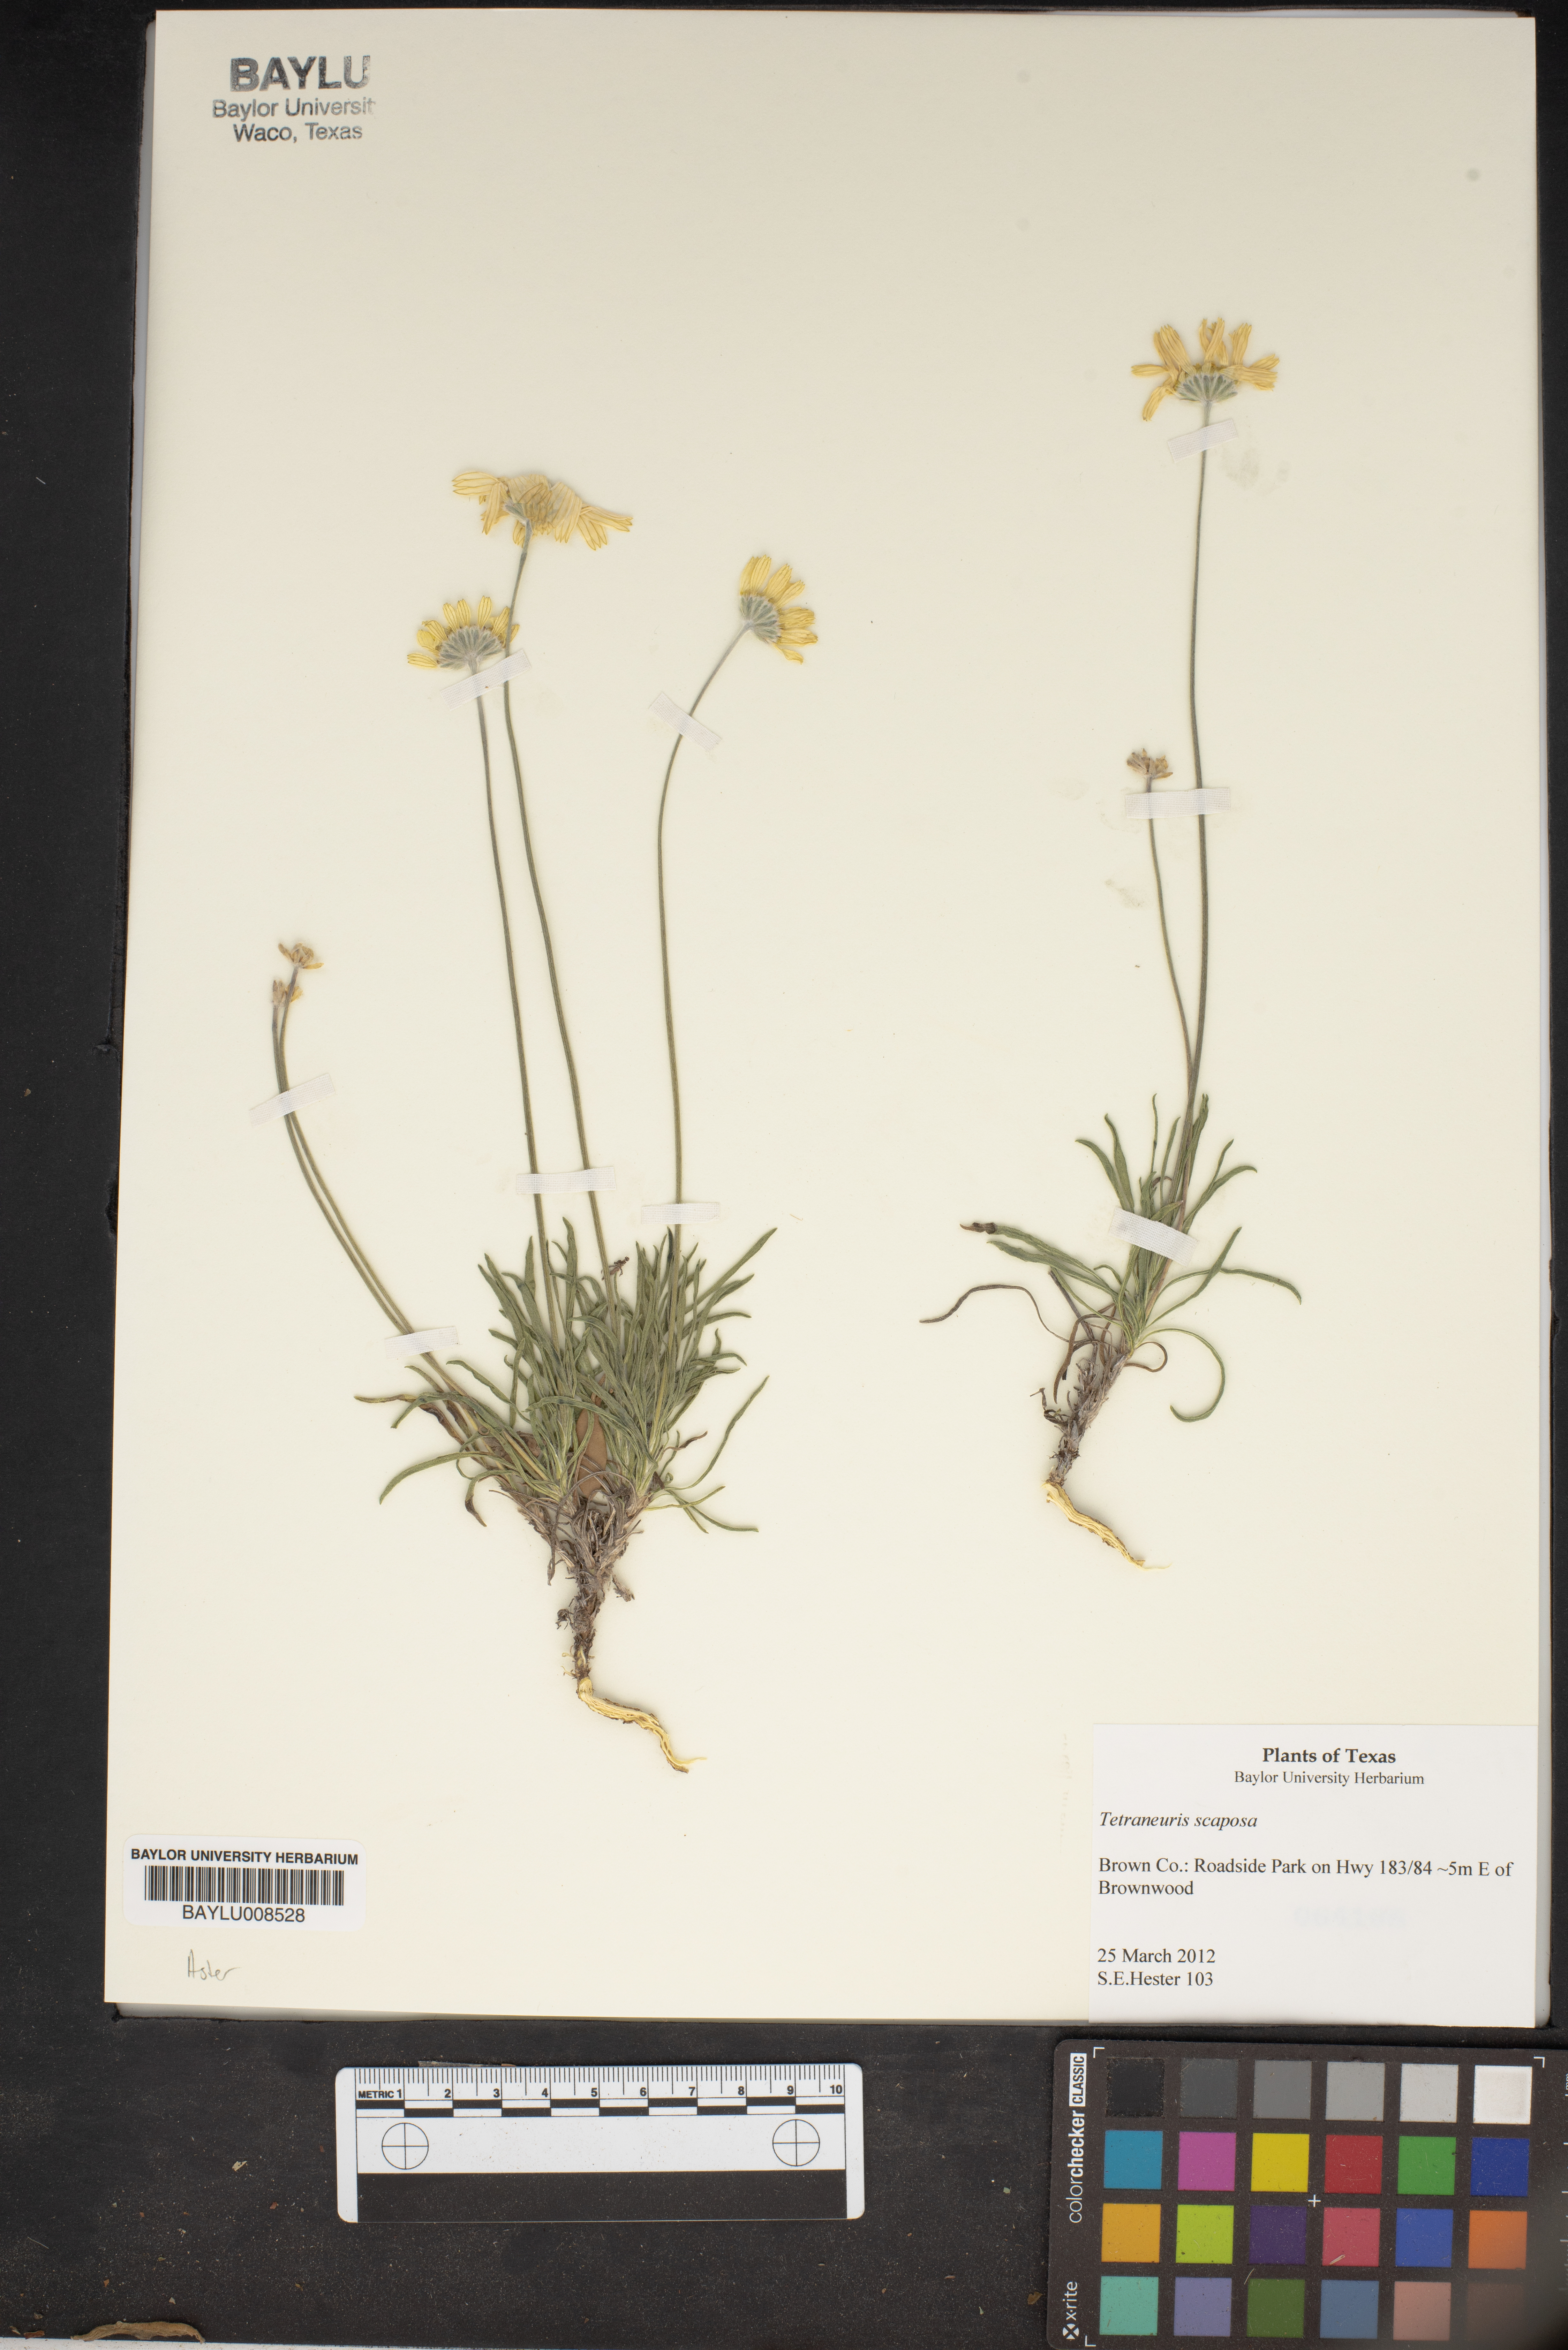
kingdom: Plantae
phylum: Tracheophyta
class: Magnoliopsida
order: Asterales
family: Asteraceae
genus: Tetraneuris
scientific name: Tetraneuris scaposa
